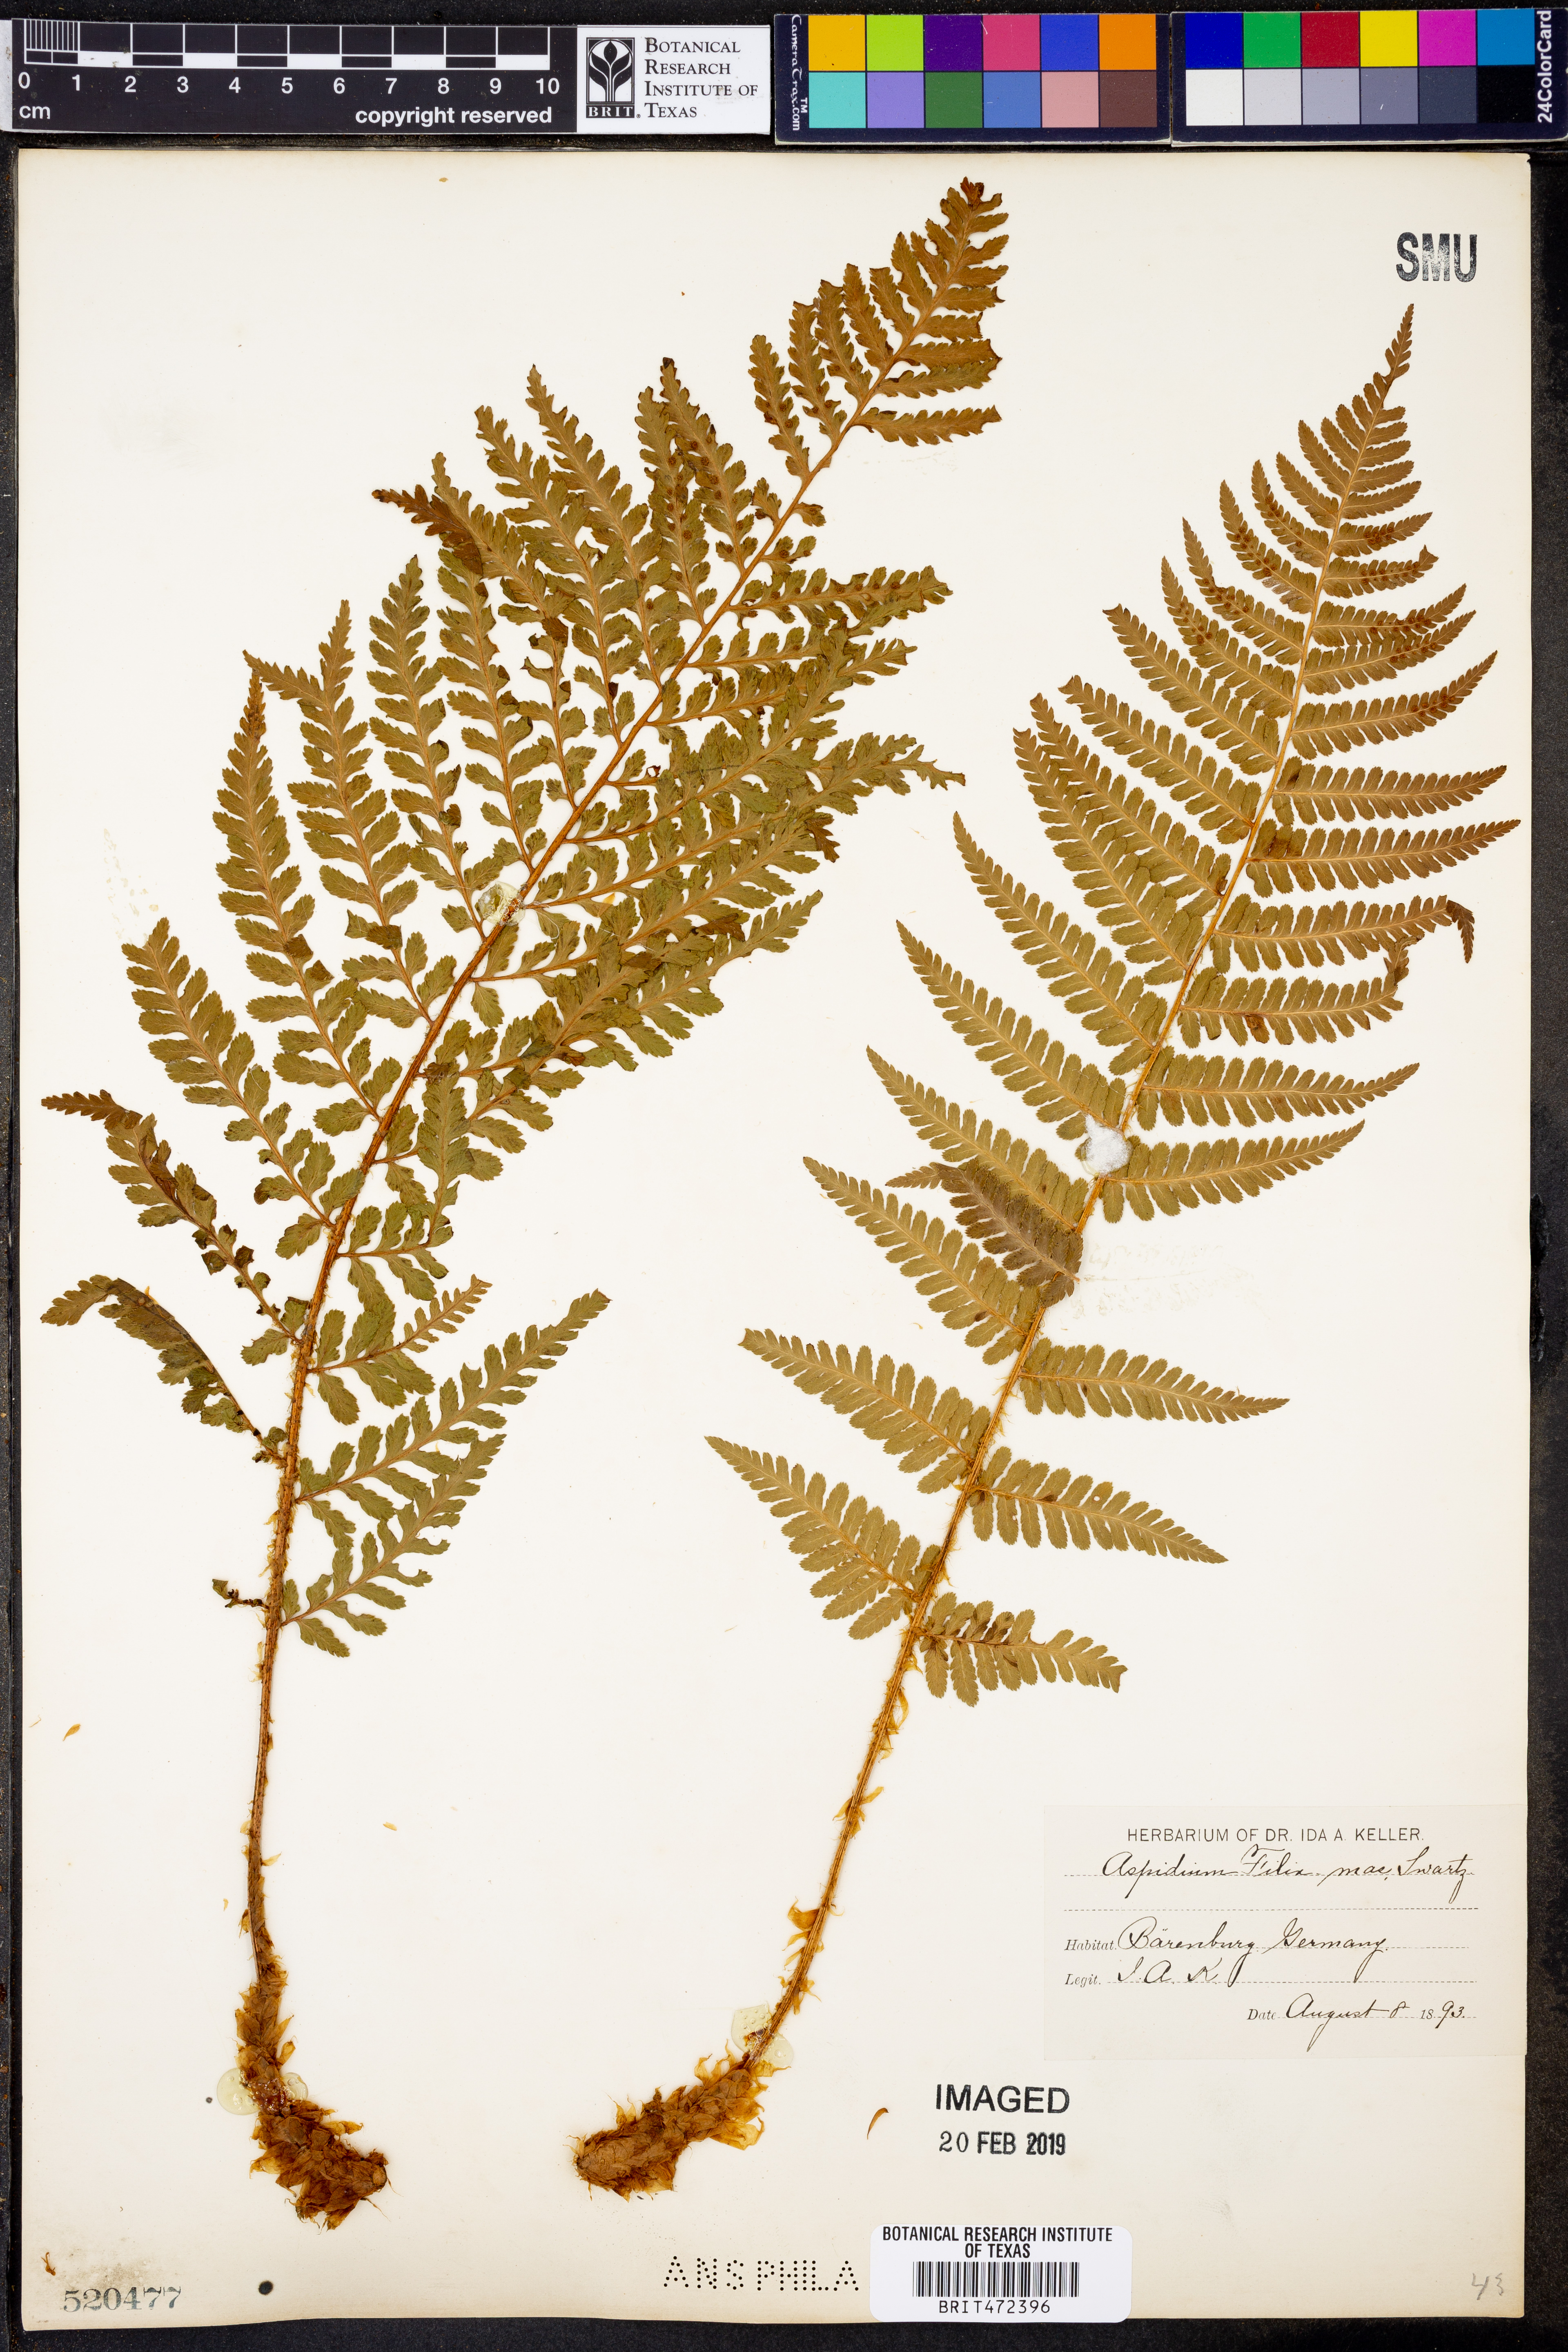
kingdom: Plantae
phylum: Tracheophyta
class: Polypodiopsida
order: Polypodiales
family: Dryopteridaceae
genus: Dryopteris
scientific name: Dryopteris
